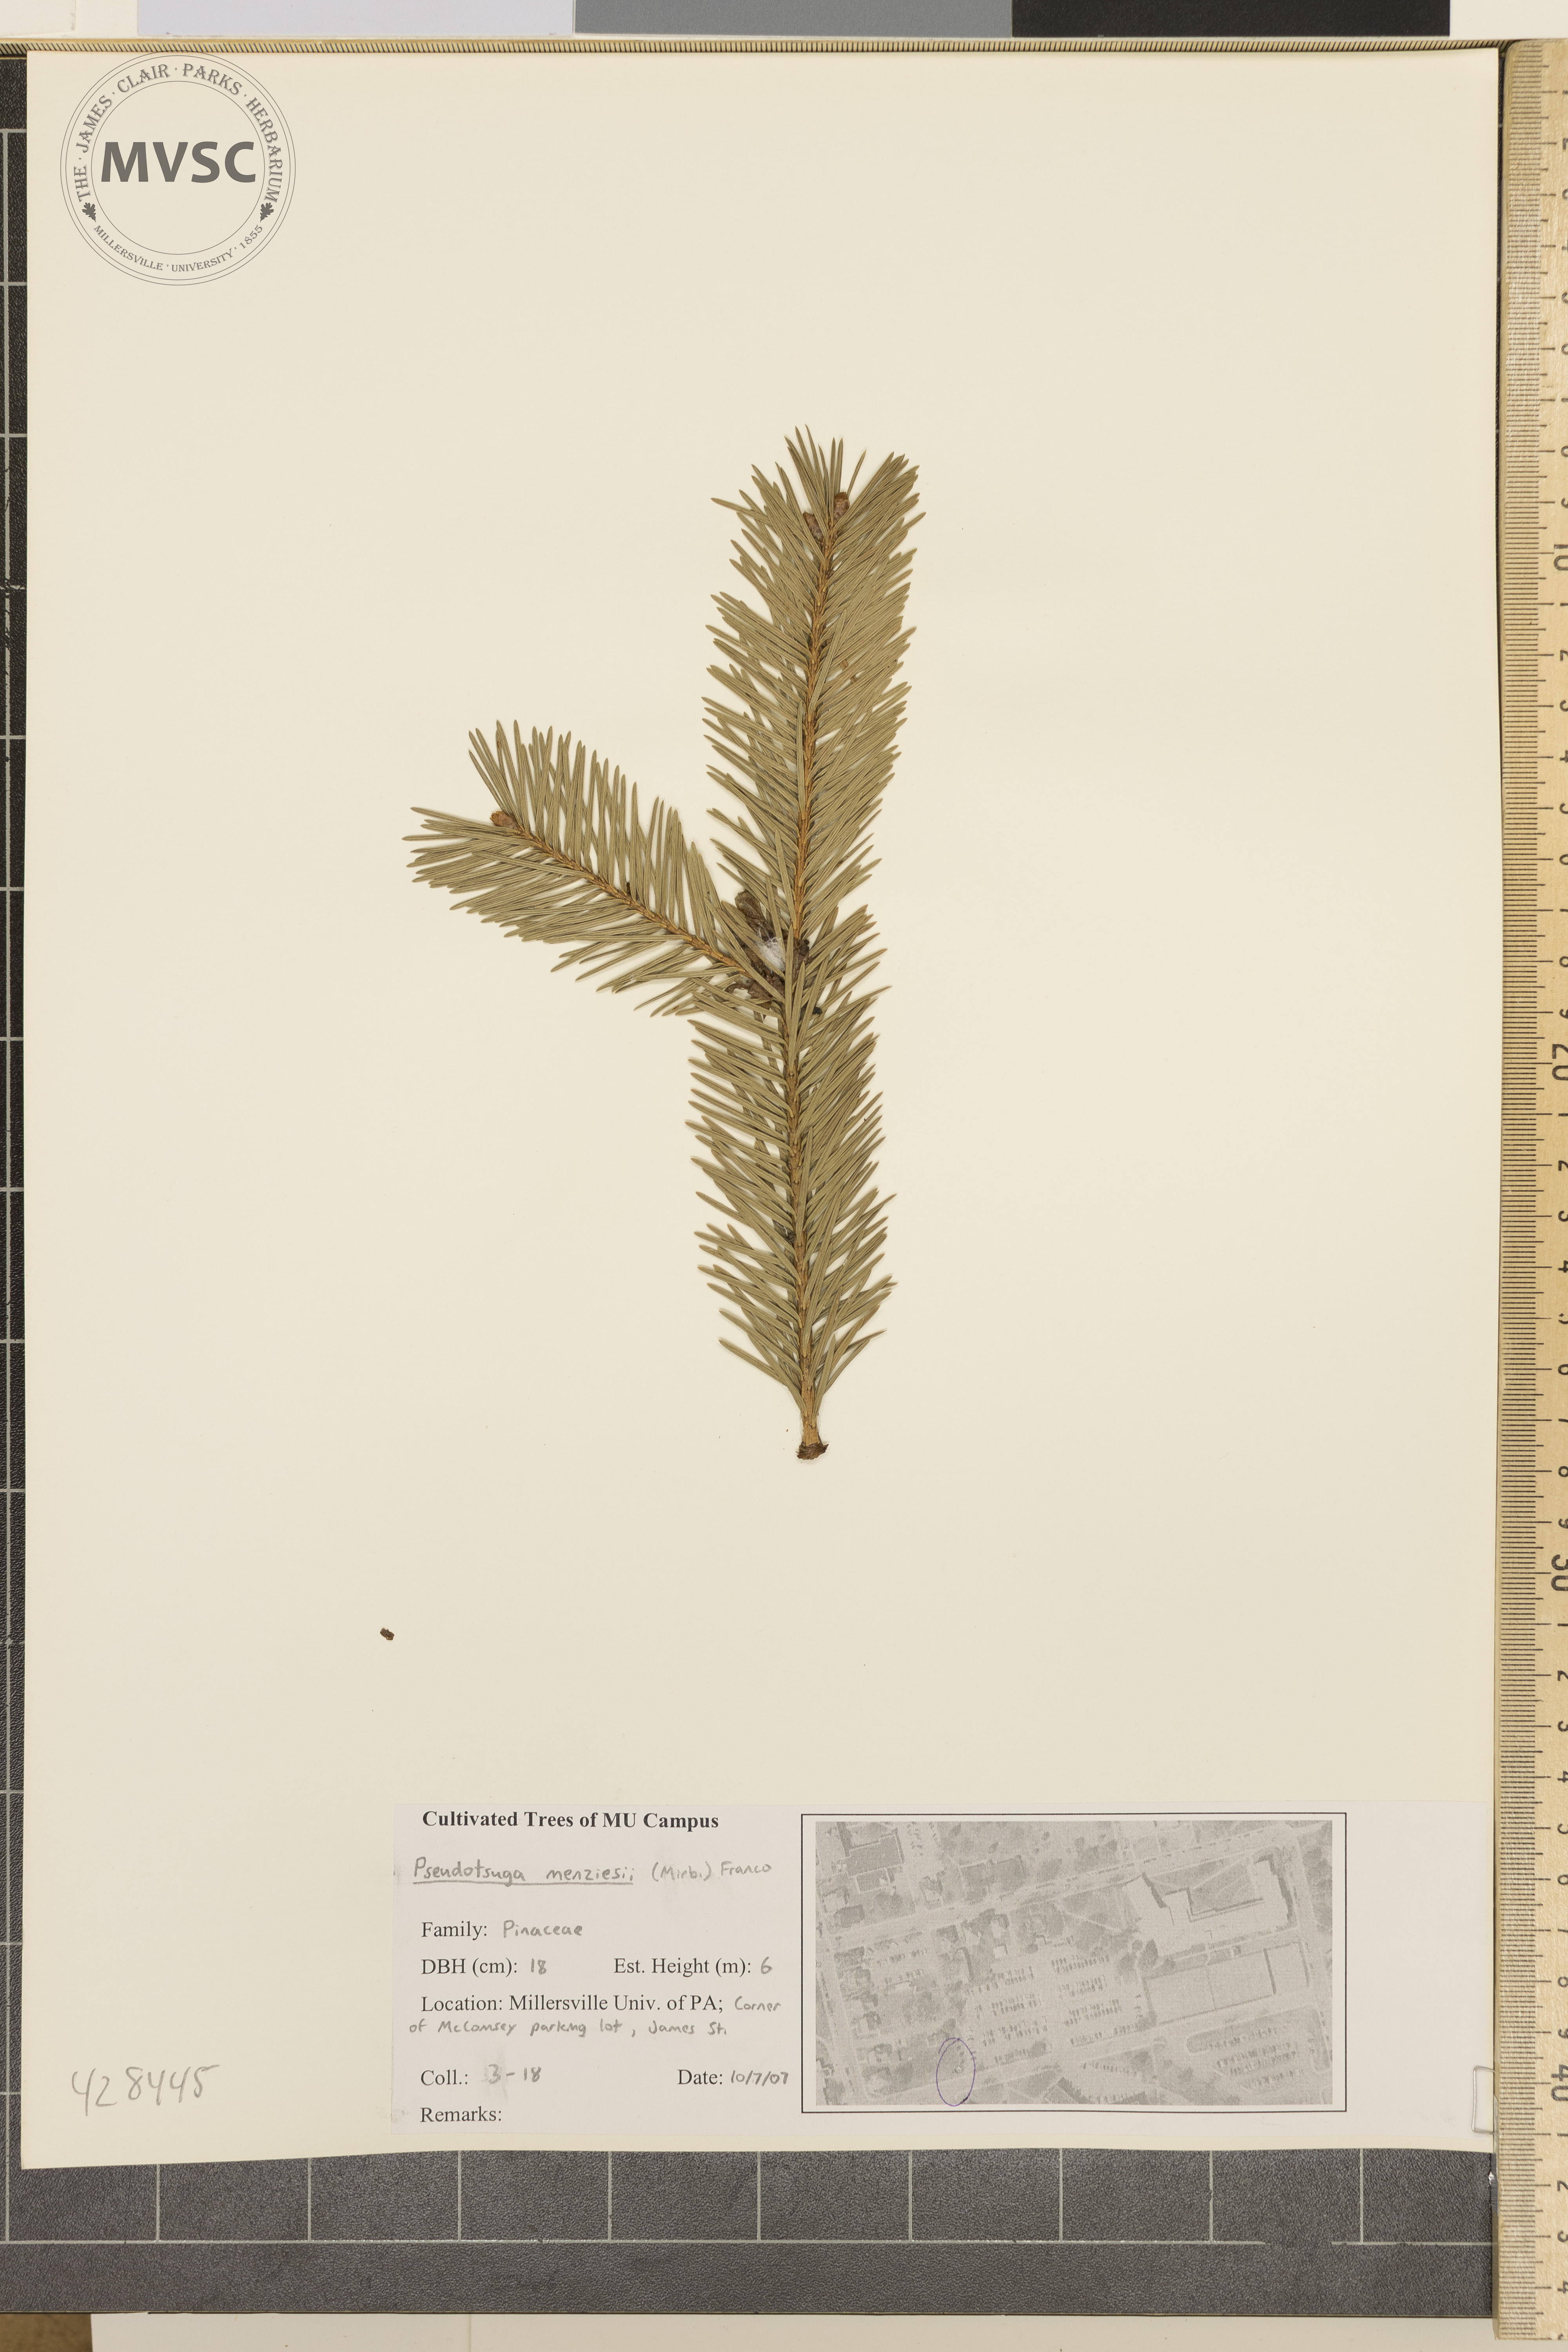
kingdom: Plantae
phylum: Tracheophyta
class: Pinopsida
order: Pinales
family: Pinaceae
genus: Pseudotsuga
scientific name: Pseudotsuga menziesii
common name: Douglas-fir
